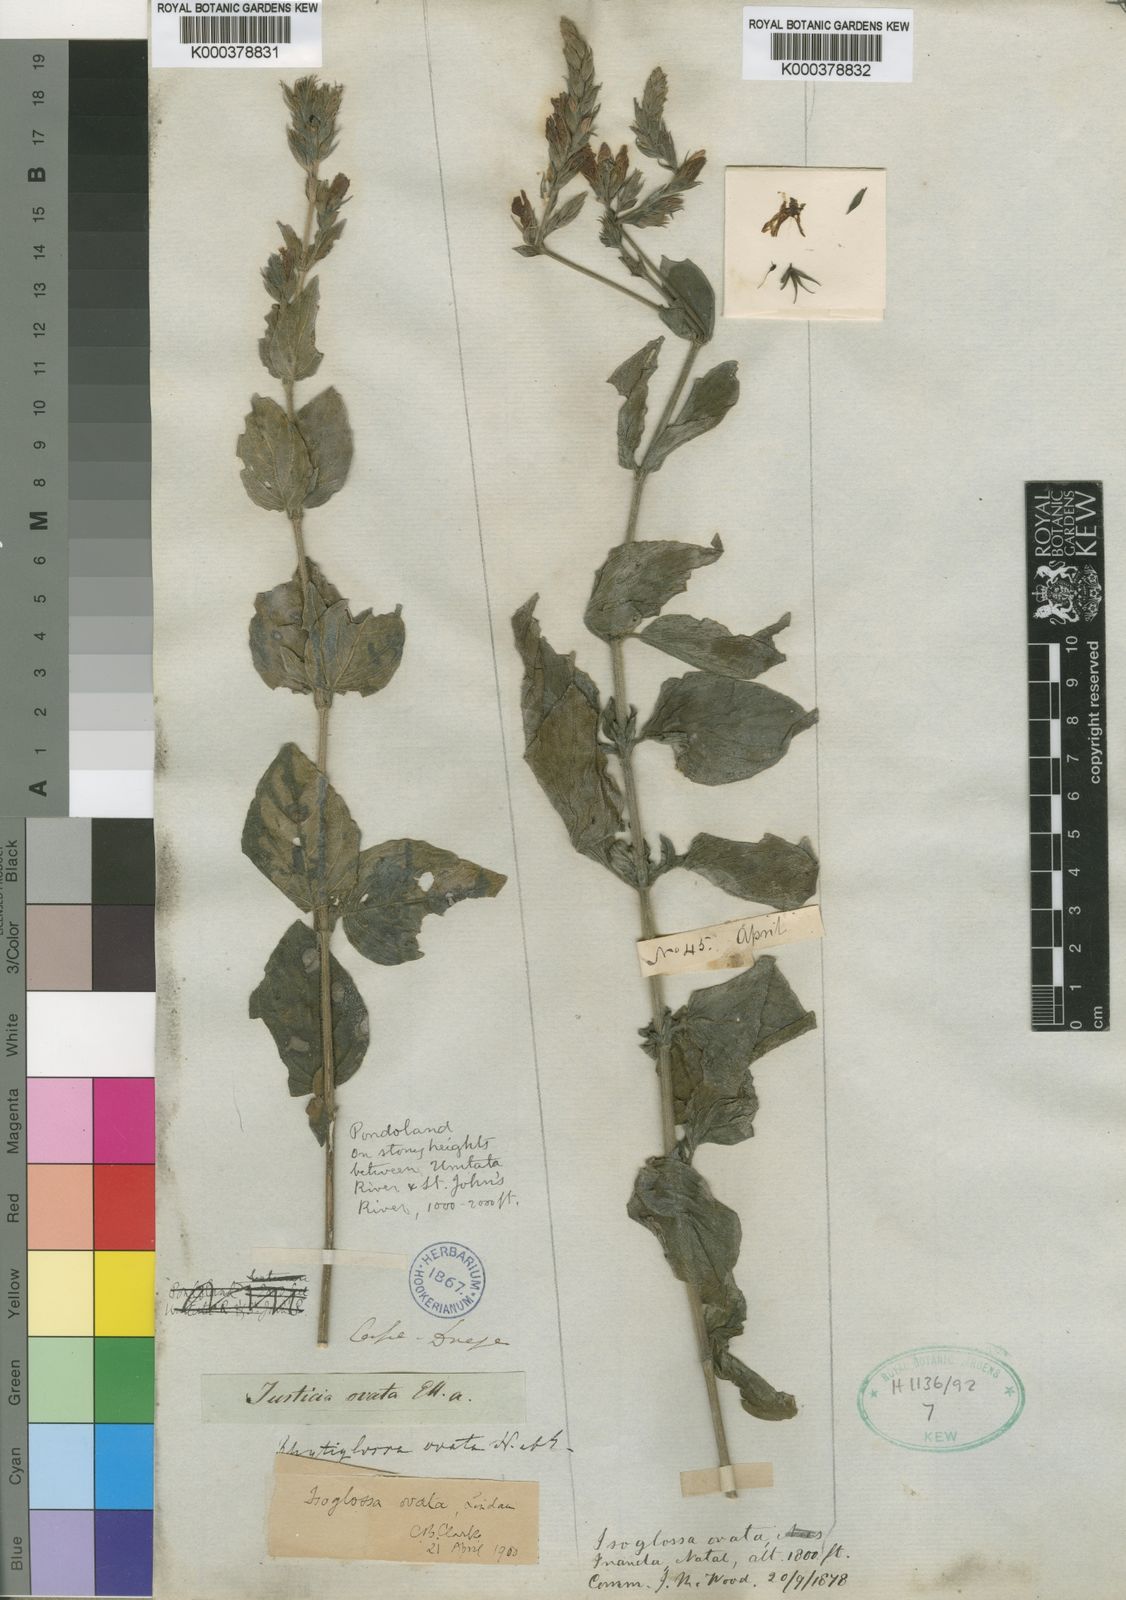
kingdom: Plantae
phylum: Tracheophyta
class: Magnoliopsida
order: Lamiales
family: Acanthaceae
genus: Isoglossa
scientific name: Isoglossa ovata
